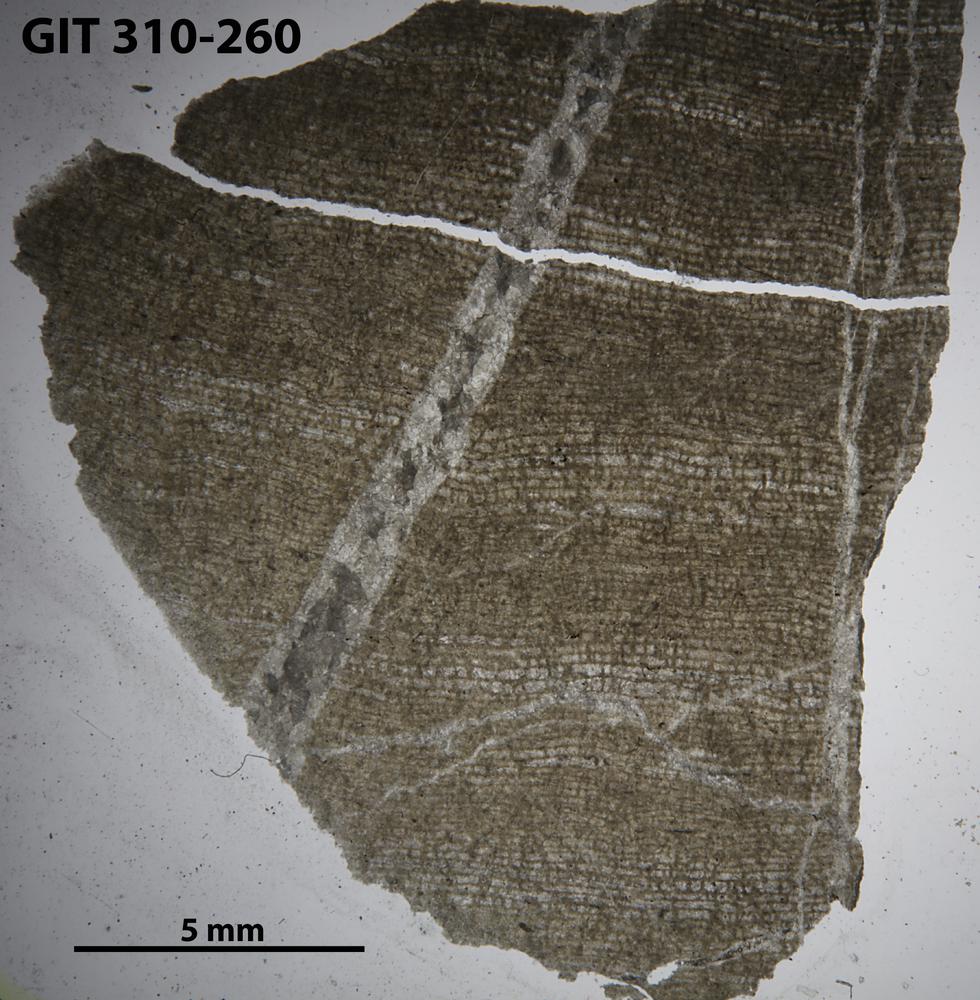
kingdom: Animalia
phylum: Porifera
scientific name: Porifera
